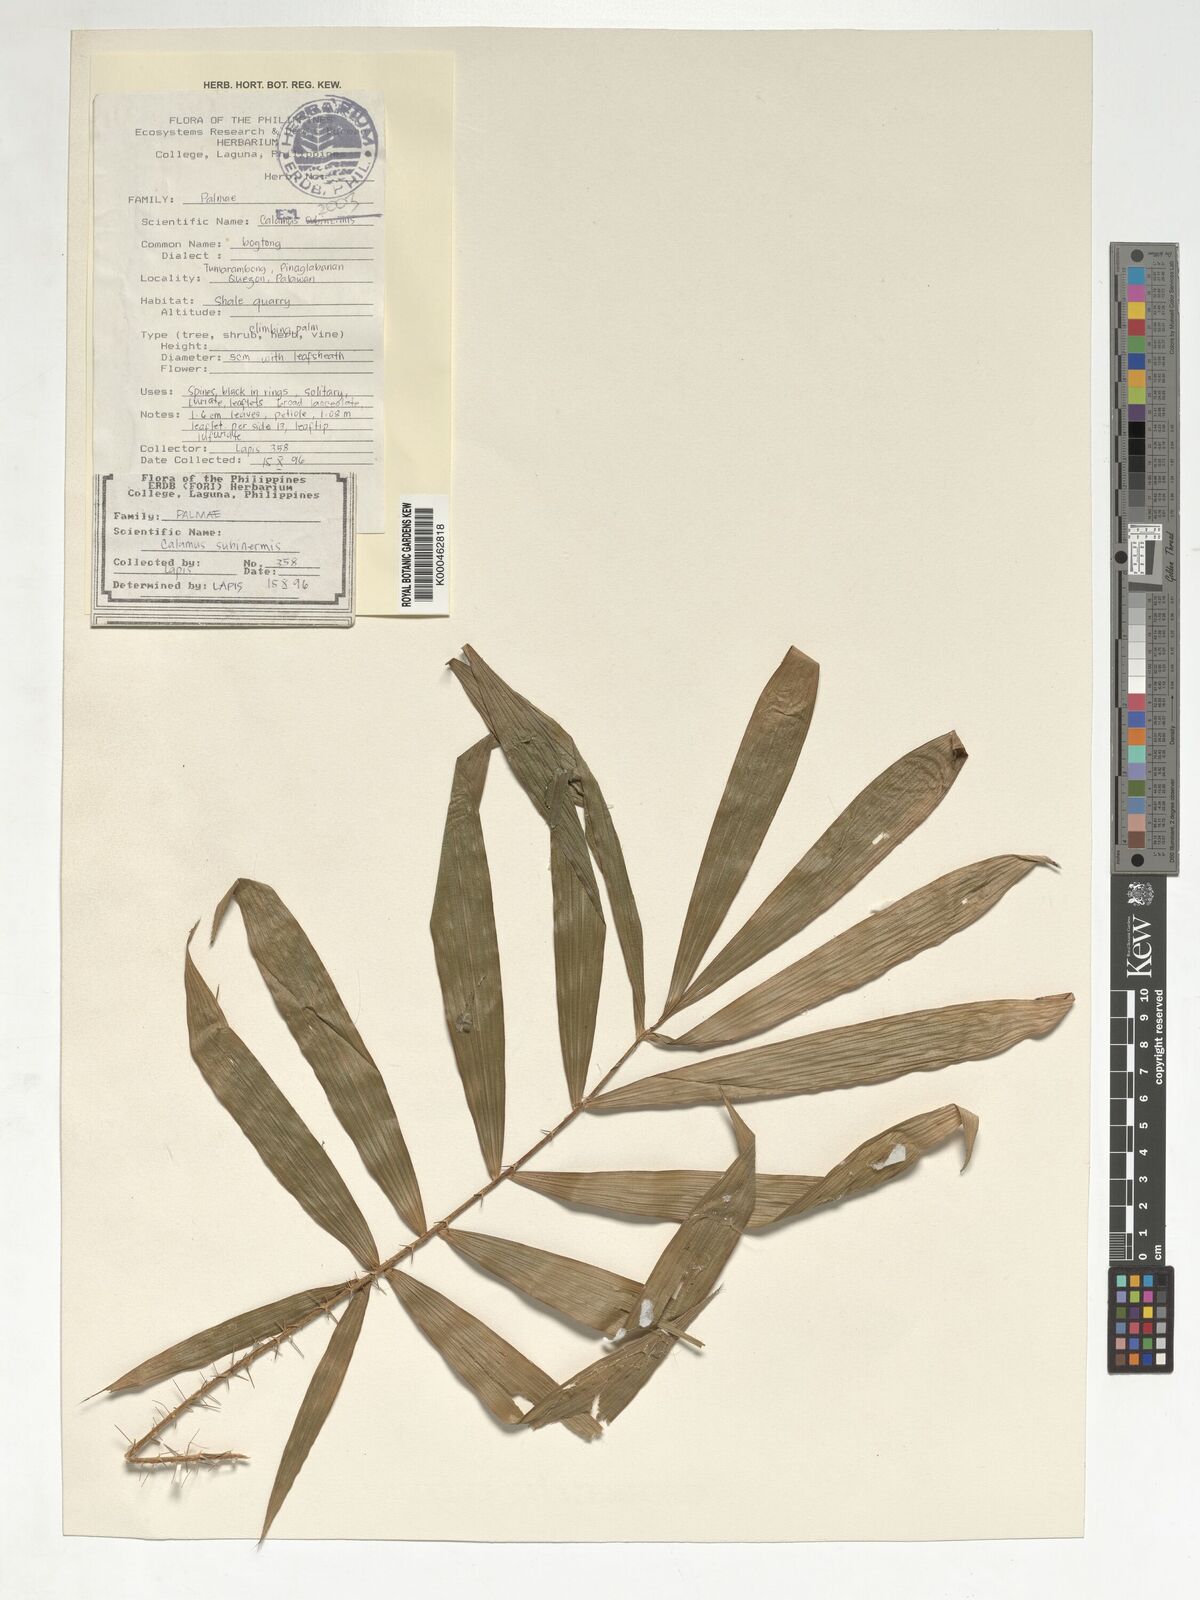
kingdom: Plantae
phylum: Tracheophyta
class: Liliopsida
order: Arecales
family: Arecaceae
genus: Calamus
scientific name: Calamus moseleyanus
